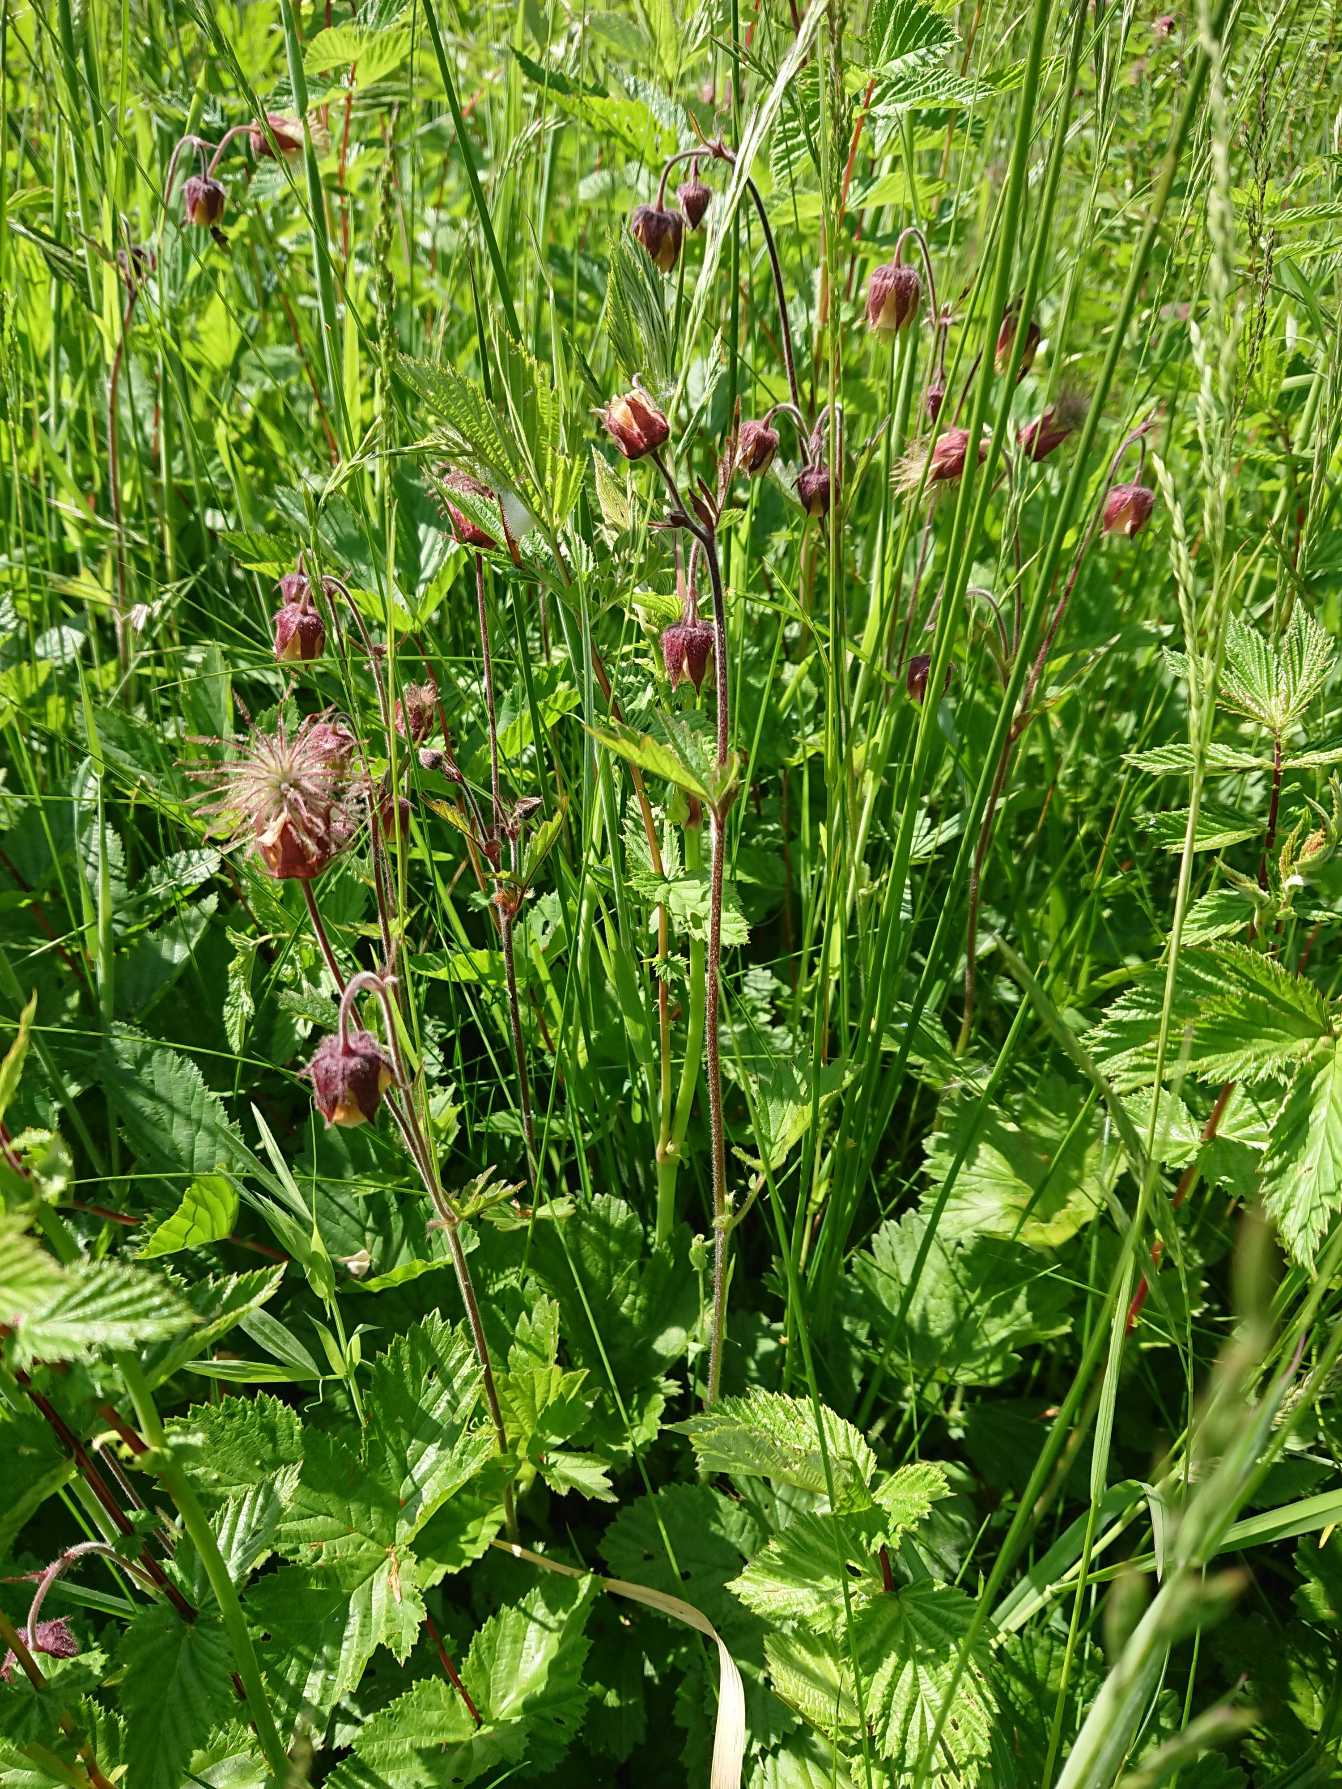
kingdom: Plantae
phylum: Tracheophyta
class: Magnoliopsida
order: Rosales
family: Rosaceae
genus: Geum
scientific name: Geum rivale
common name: Eng-nellikerod
